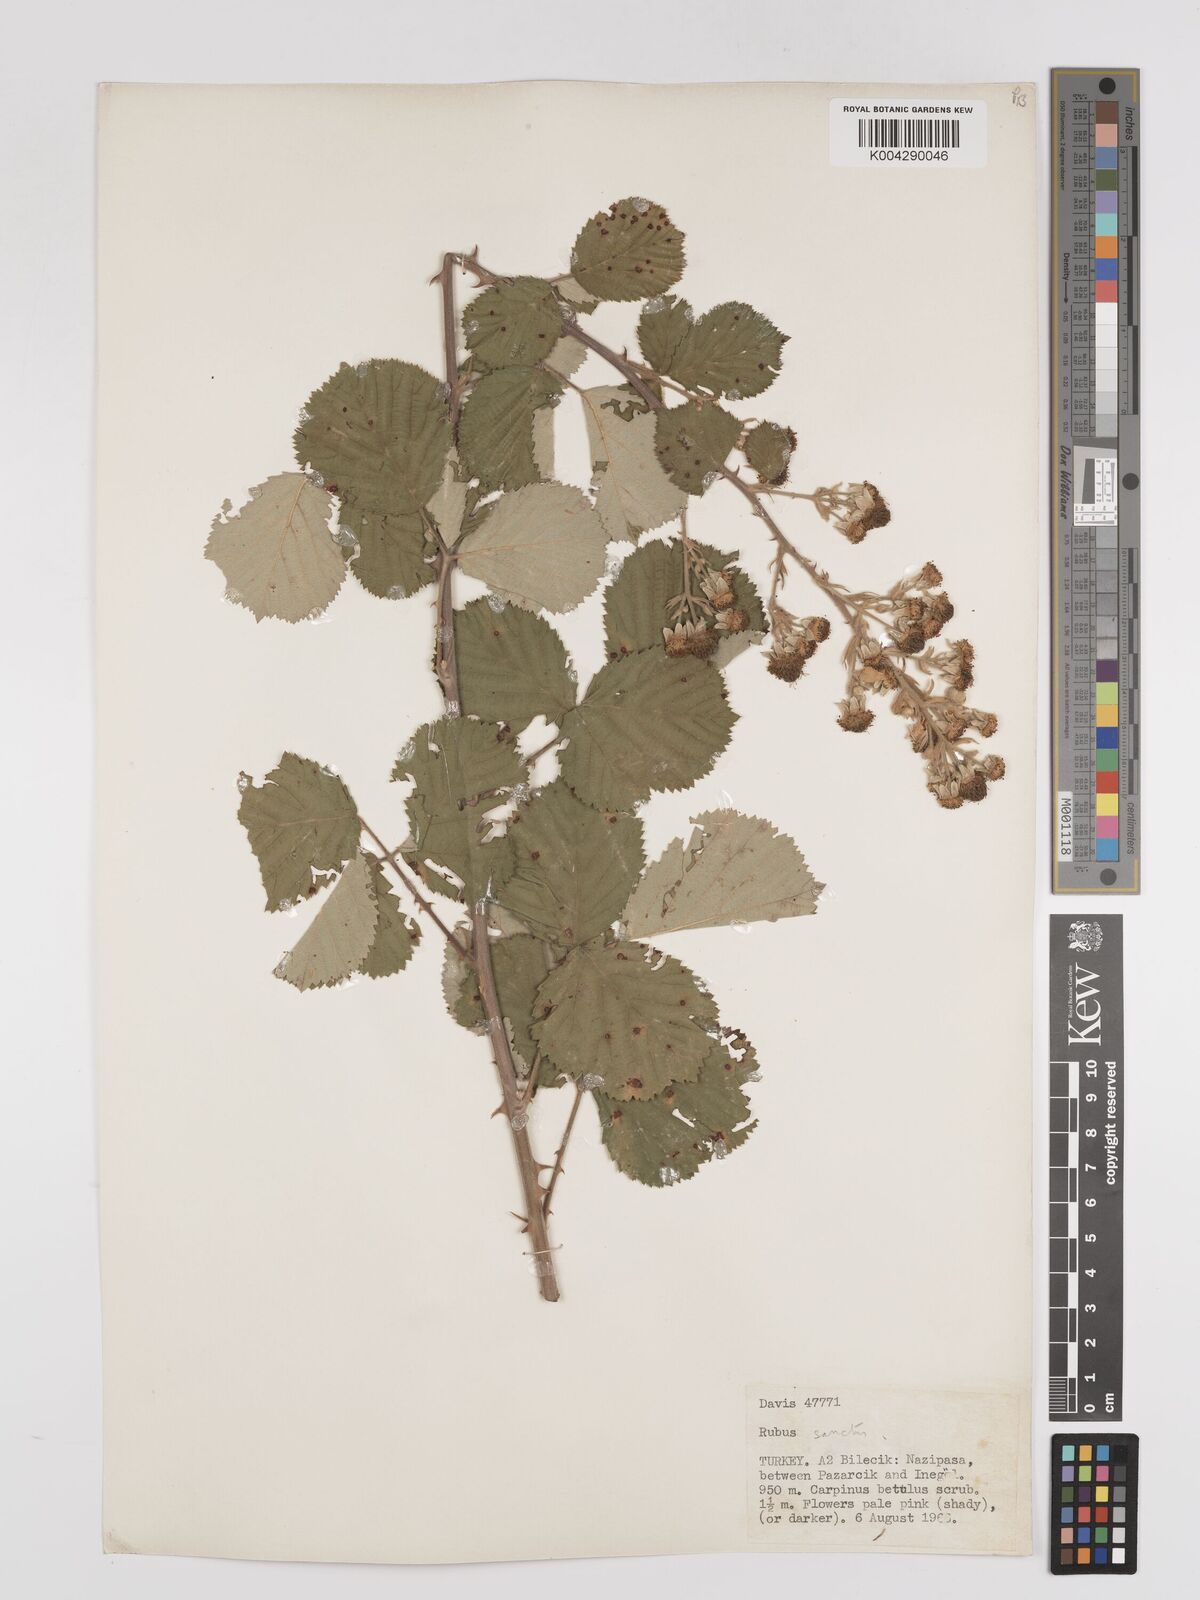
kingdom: Plantae
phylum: Tracheophyta
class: Magnoliopsida
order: Rosales
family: Rosaceae
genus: Rubus
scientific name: Rubus sanctus
